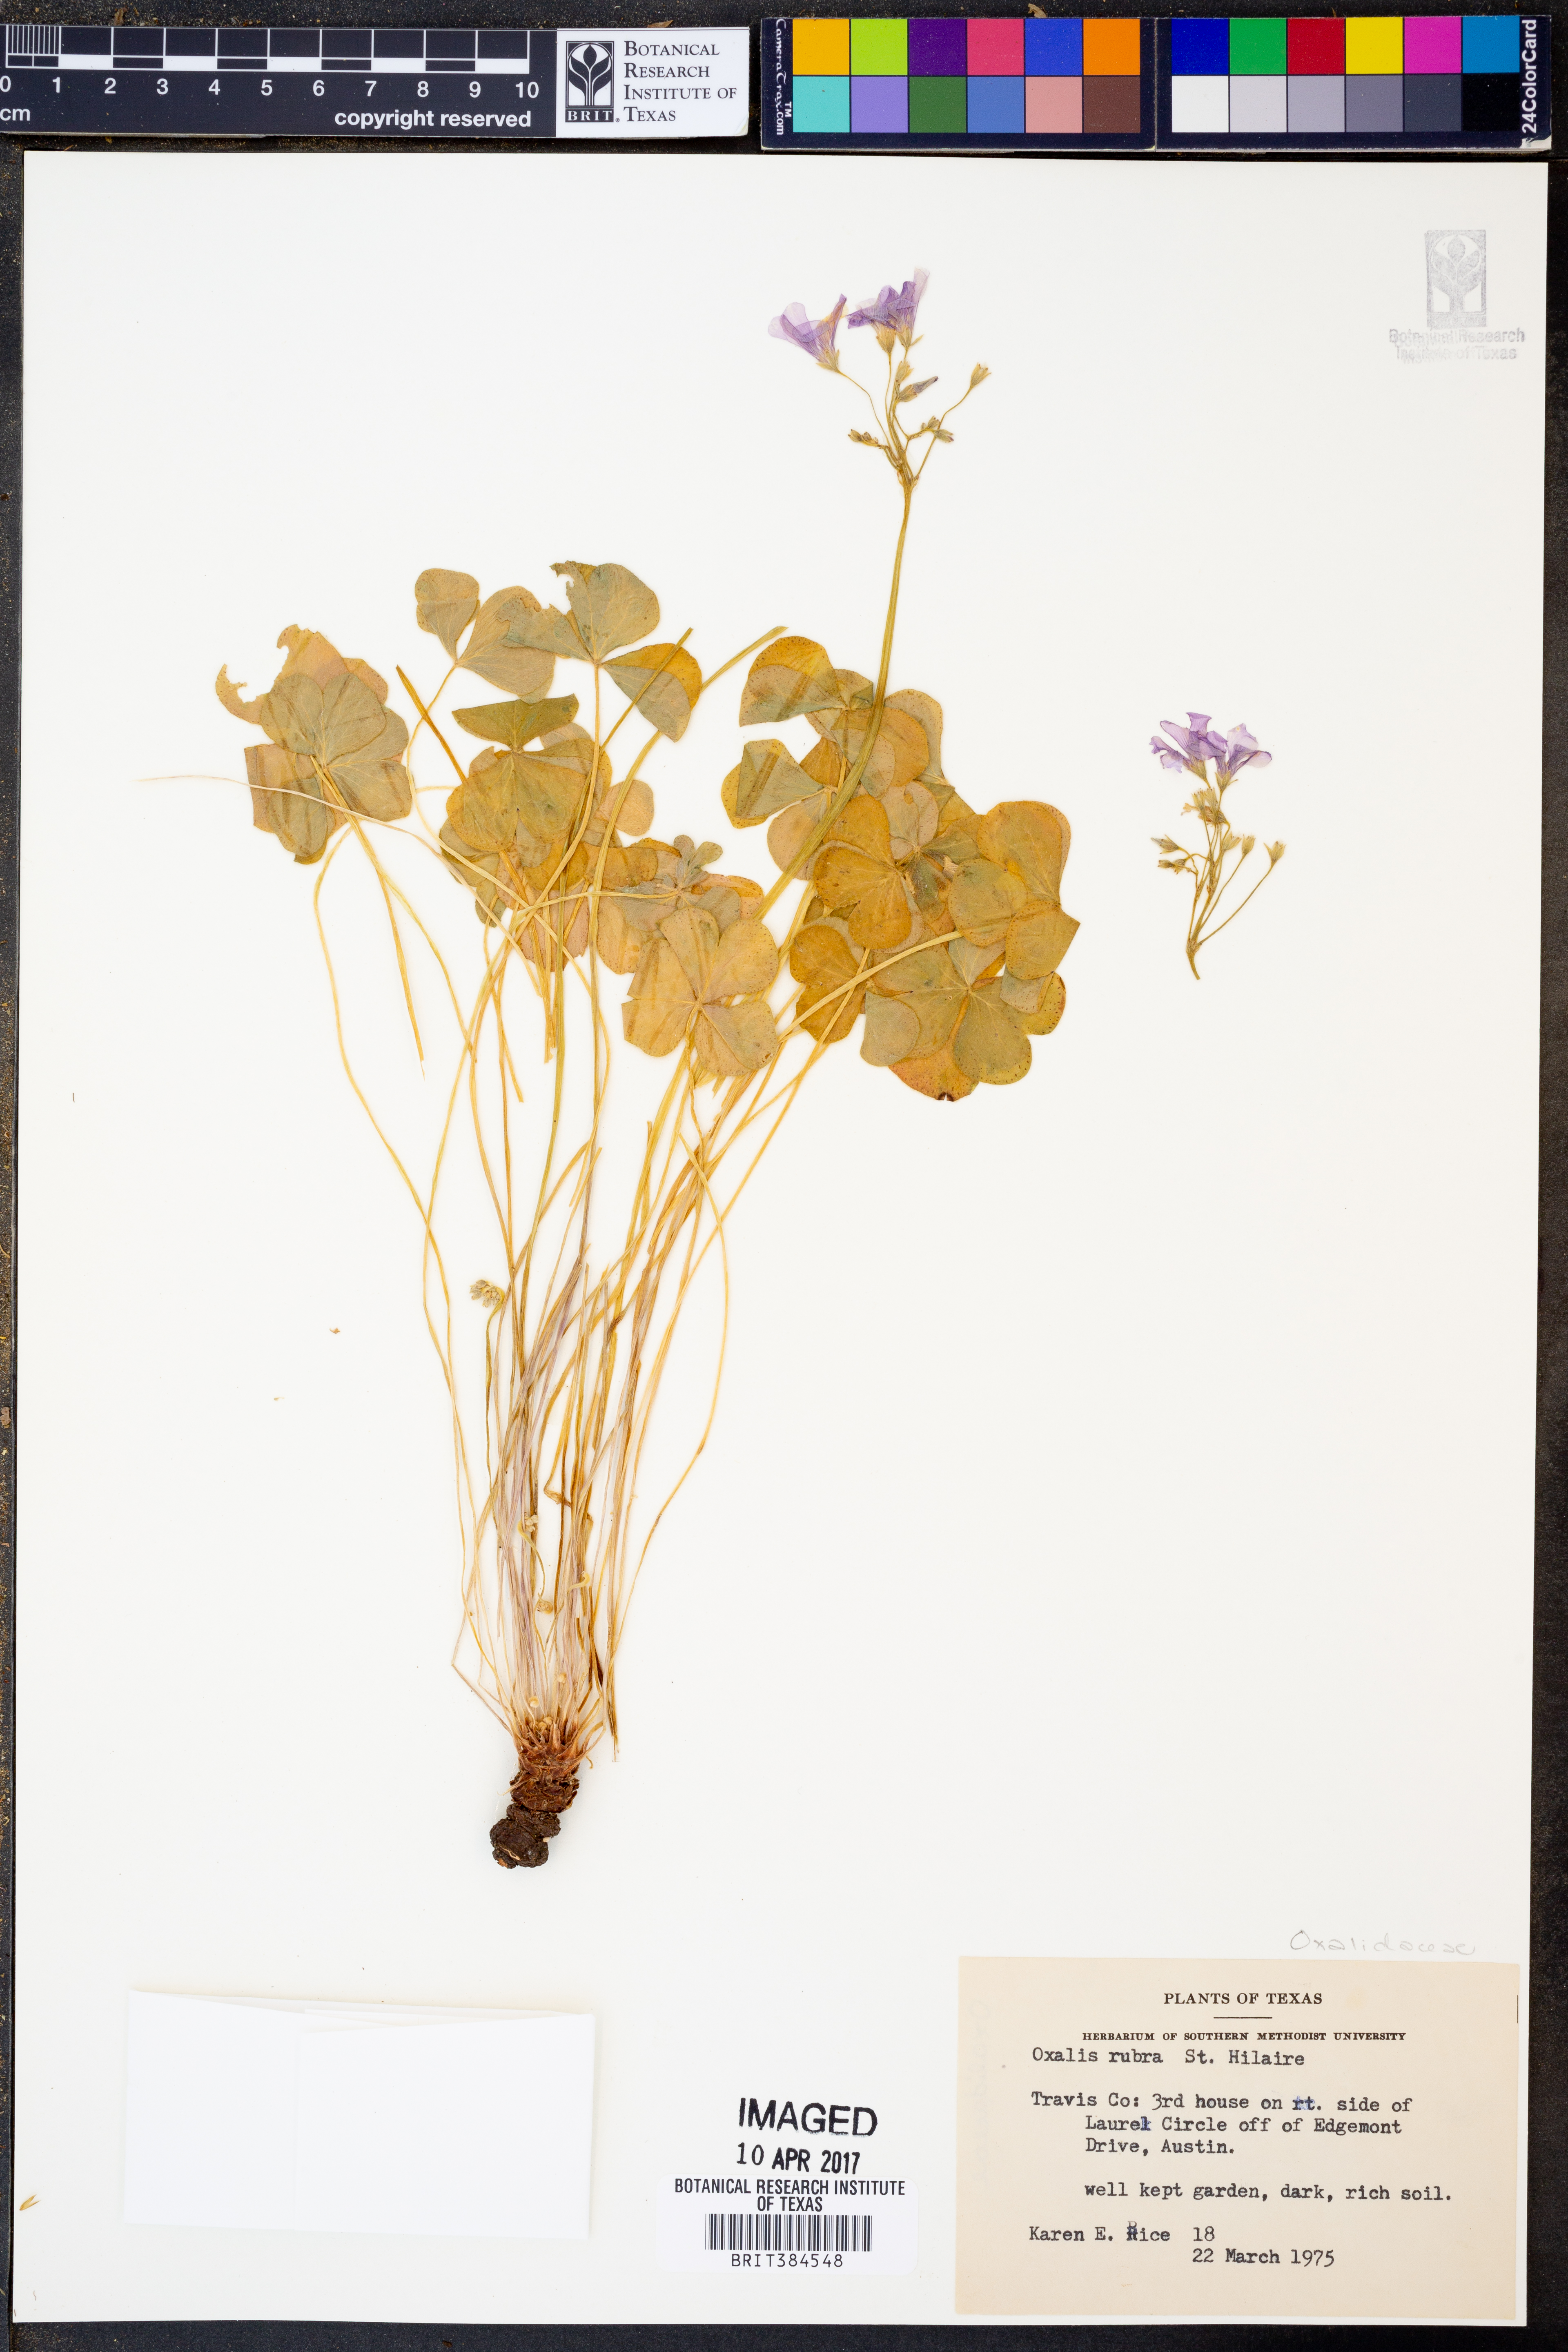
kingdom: Plantae
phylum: Tracheophyta
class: Magnoliopsida
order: Oxalidales
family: Oxalidaceae
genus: Oxalis
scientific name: Oxalis articulata
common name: Pink-sorrel
